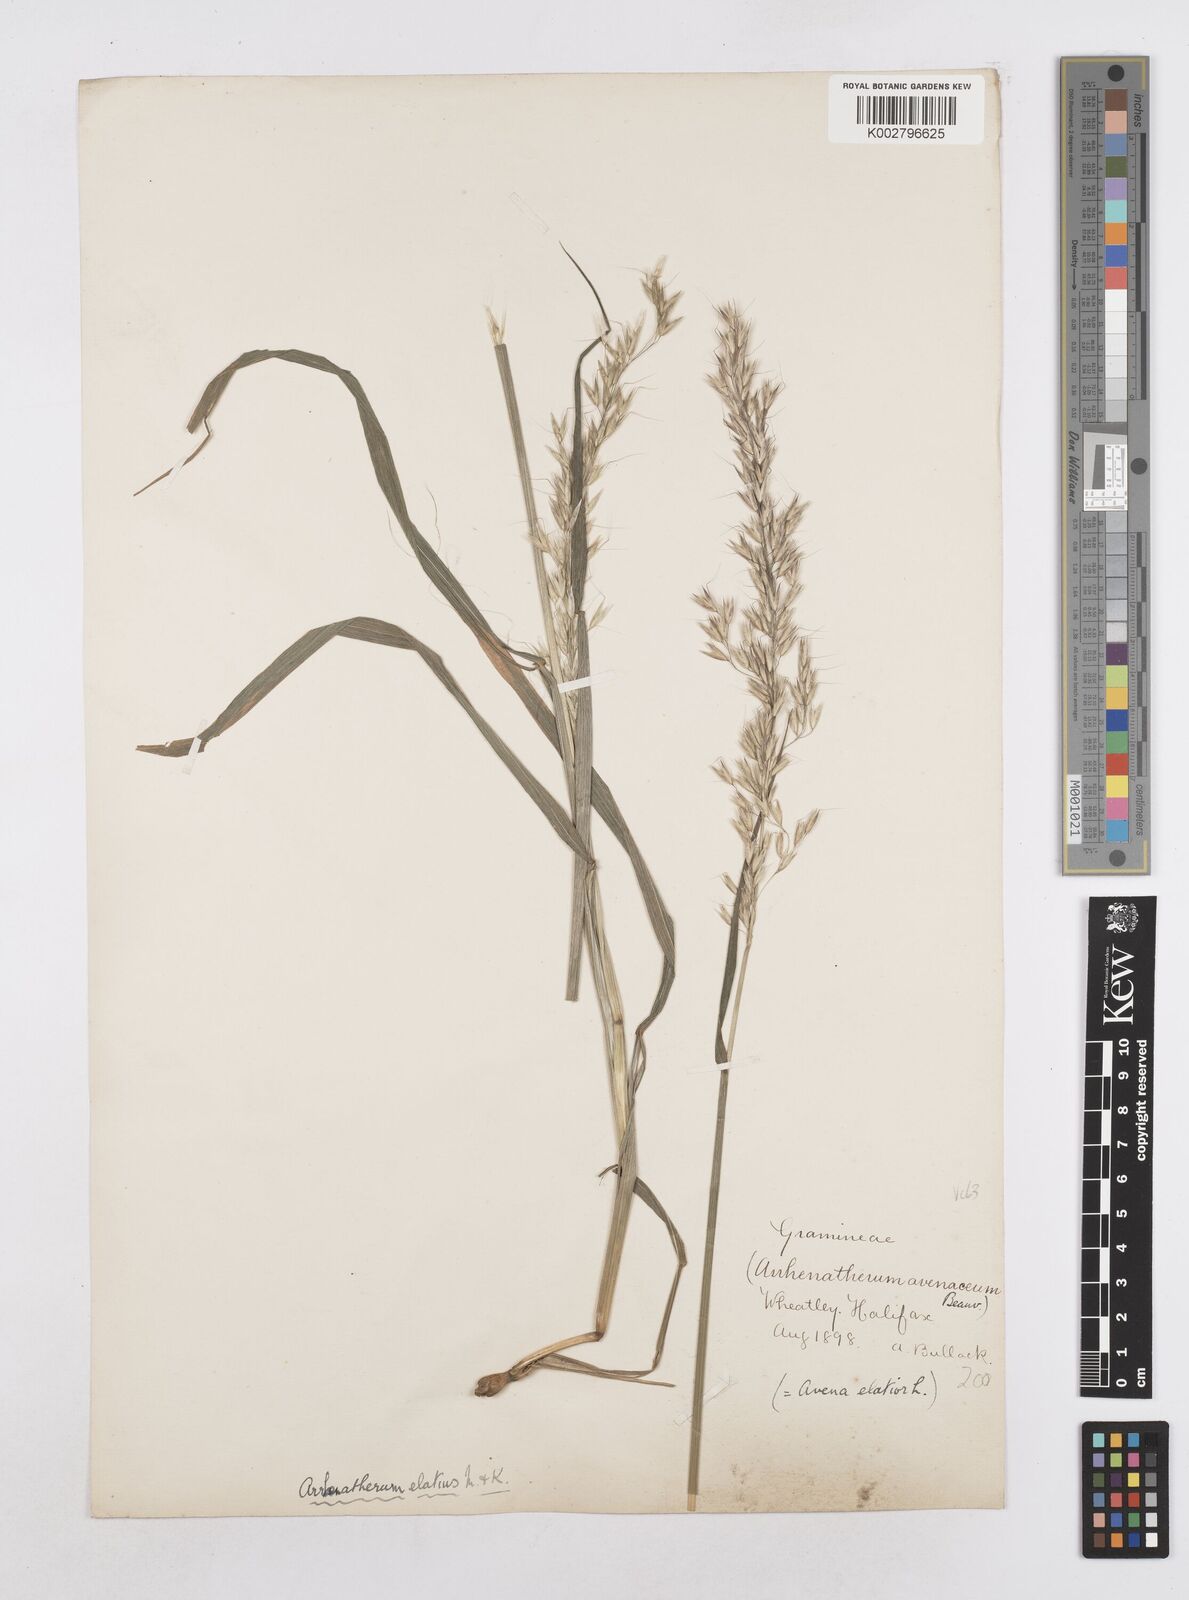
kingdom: Plantae
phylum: Tracheophyta
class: Liliopsida
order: Poales
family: Poaceae
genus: Arrhenatherum
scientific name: Arrhenatherum elatius
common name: Tall oatgrass
